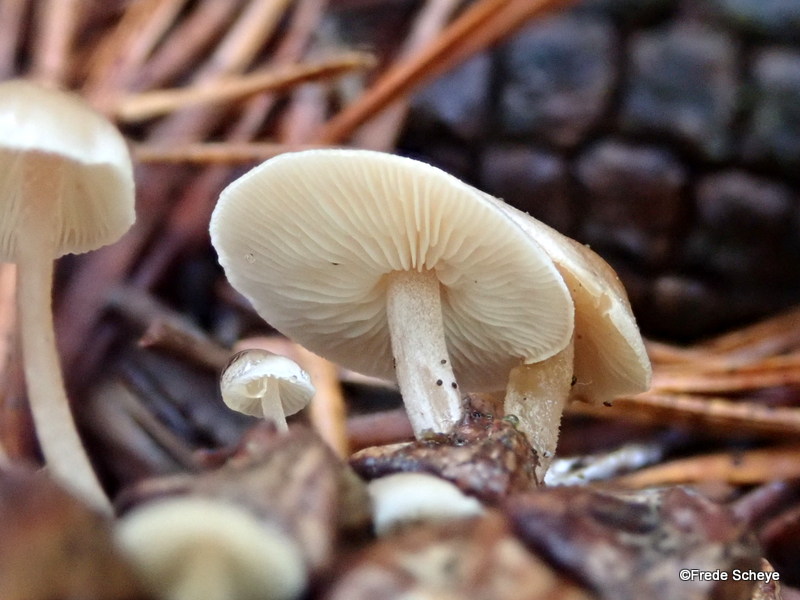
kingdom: Fungi
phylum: Basidiomycota
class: Agaricomycetes
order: Agaricales
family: Marasmiaceae
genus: Baeospora
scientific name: Baeospora myosura
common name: koglebruskhat
